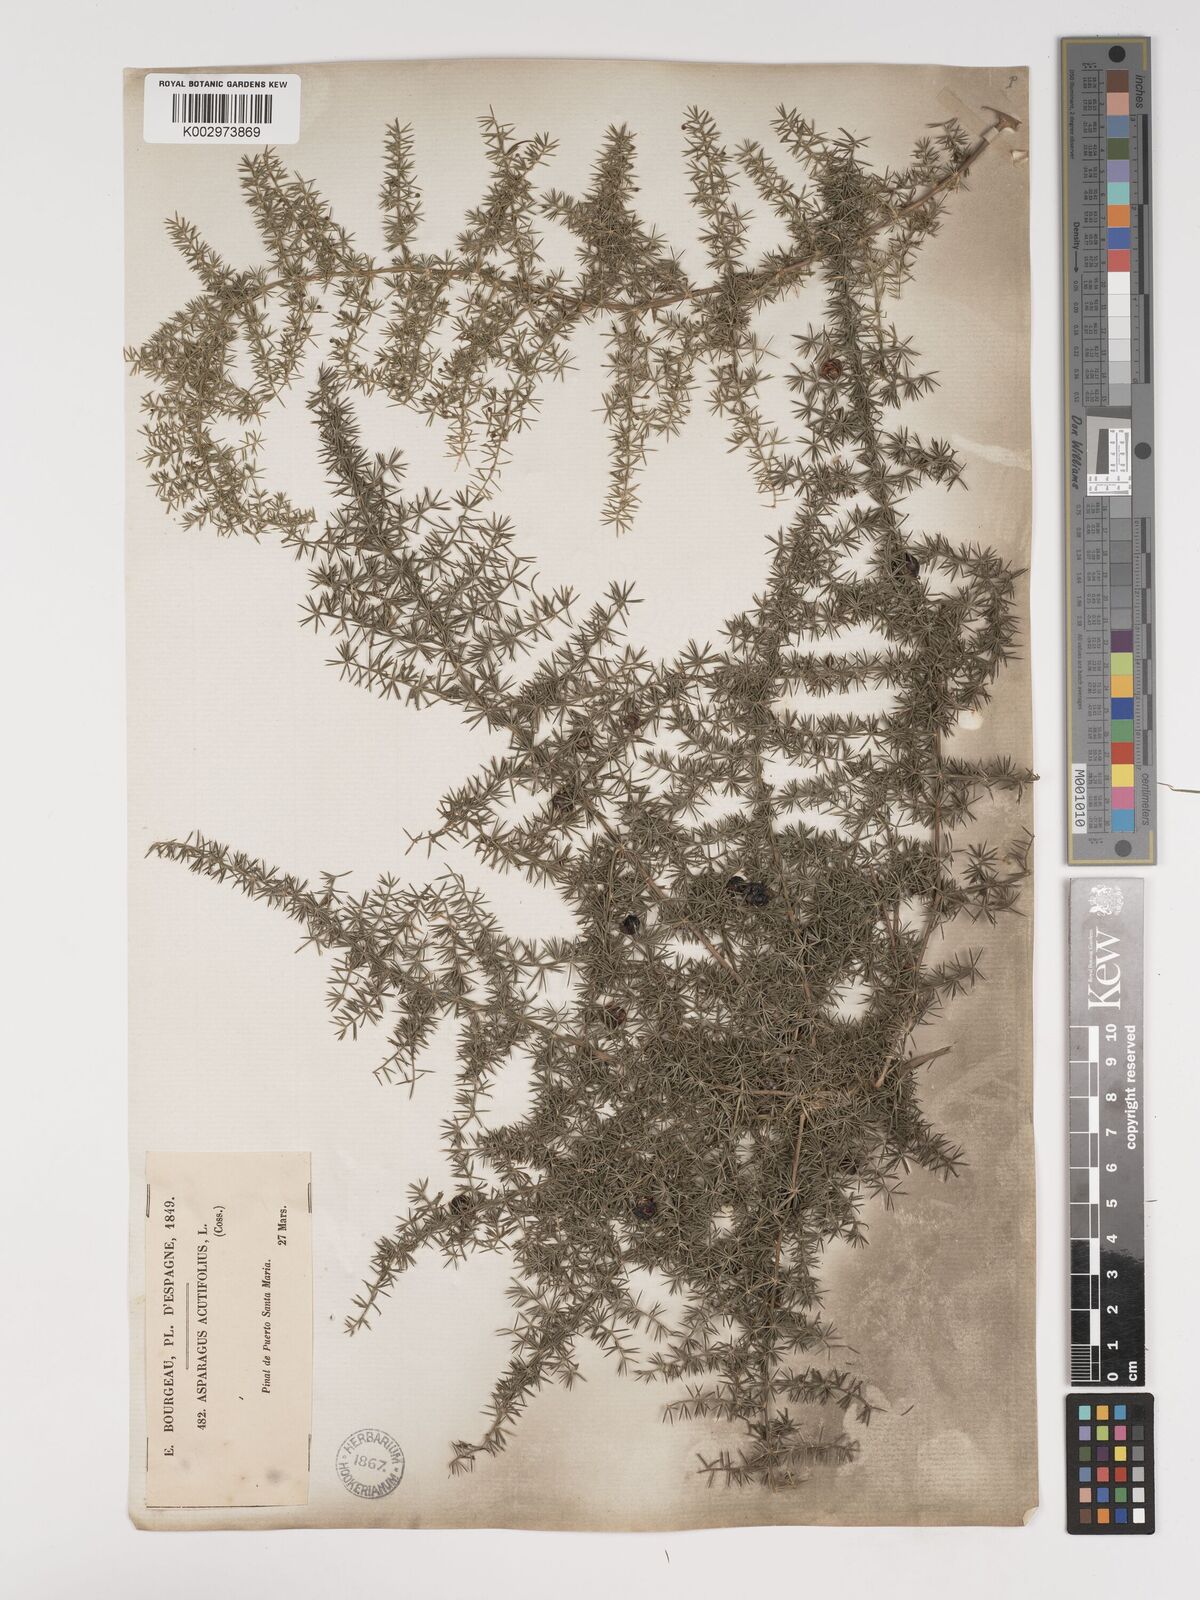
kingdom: Plantae
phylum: Tracheophyta
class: Liliopsida
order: Asparagales
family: Asparagaceae
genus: Asparagus
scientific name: Asparagus acutifolius
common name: Wild asparagus
